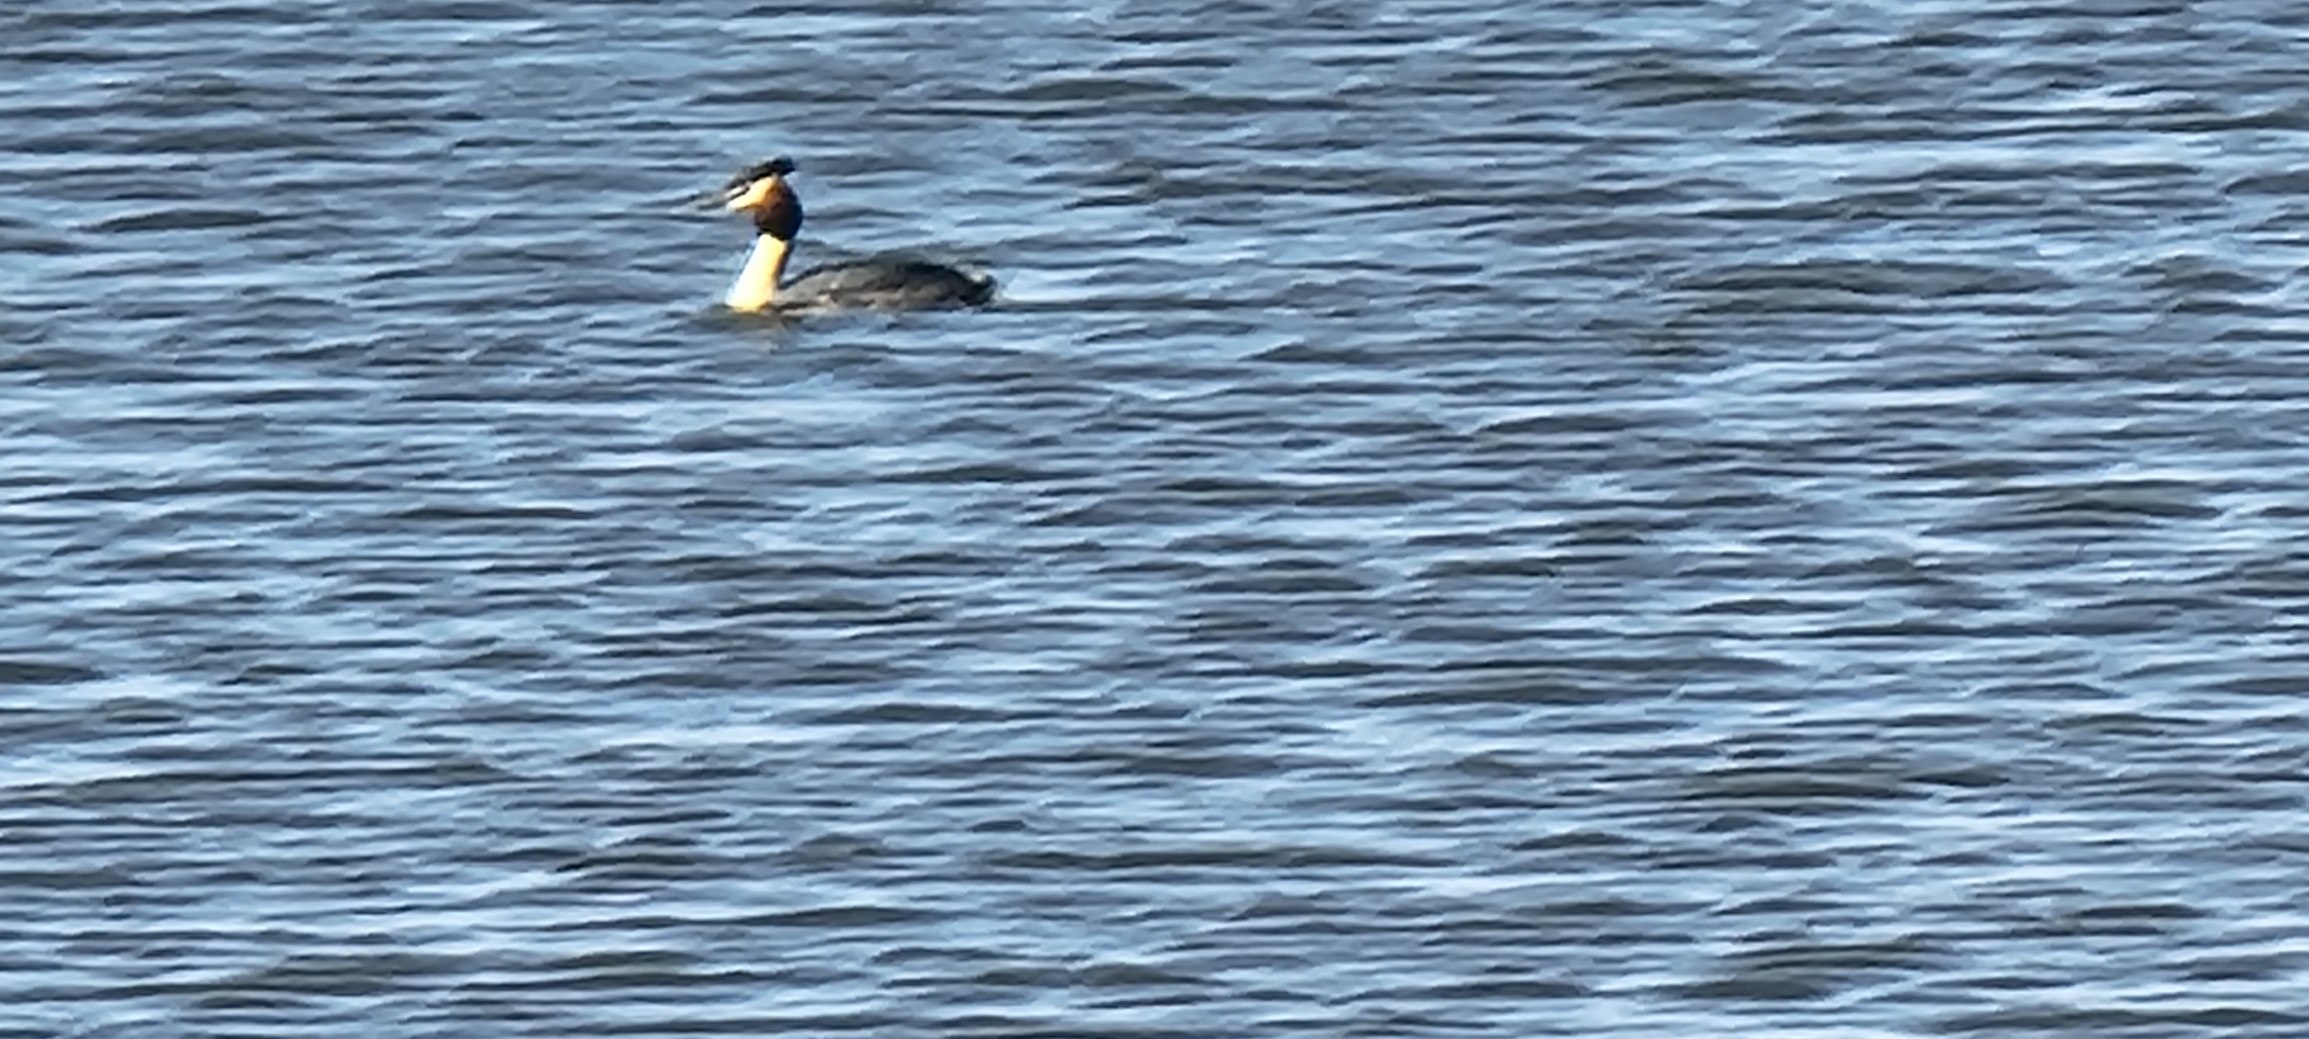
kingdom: Animalia
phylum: Chordata
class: Aves
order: Podicipediformes
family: Podicipedidae
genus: Podiceps
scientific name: Podiceps cristatus
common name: Toppet lappedykker
